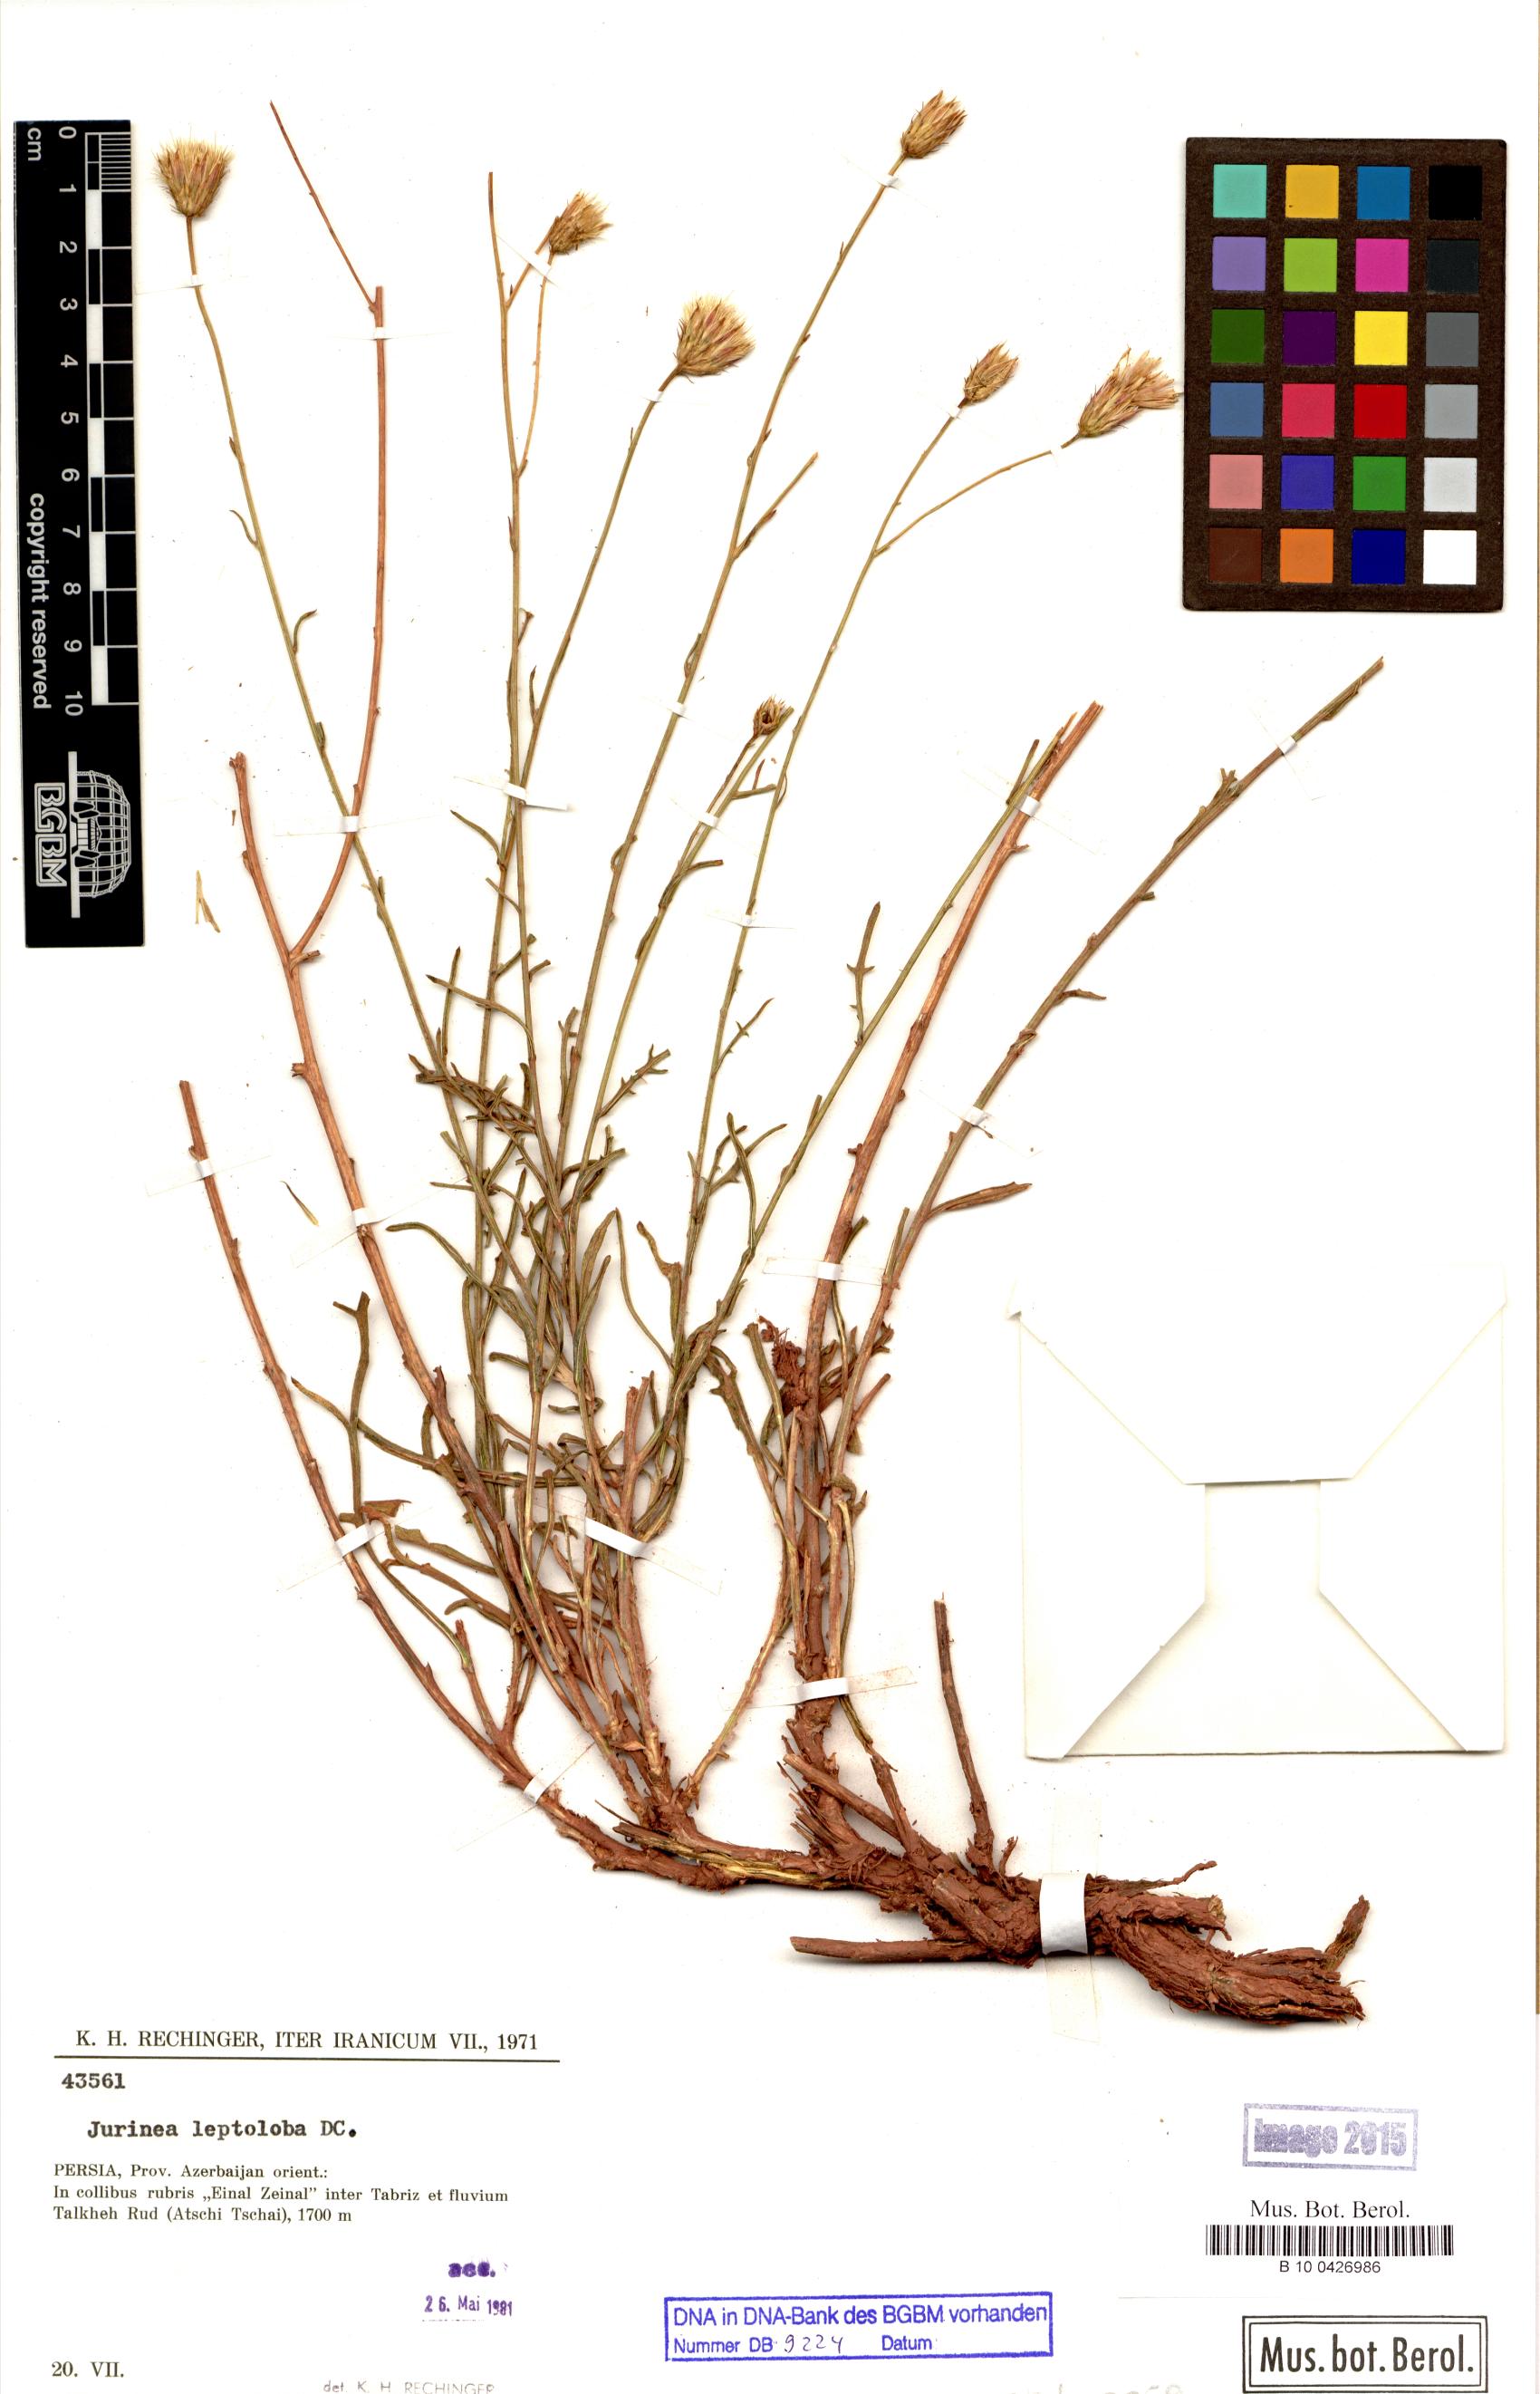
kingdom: Plantae
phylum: Tracheophyta
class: Magnoliopsida
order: Asterales
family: Asteraceae
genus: Jurinea
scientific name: Jurinea leptoloba
